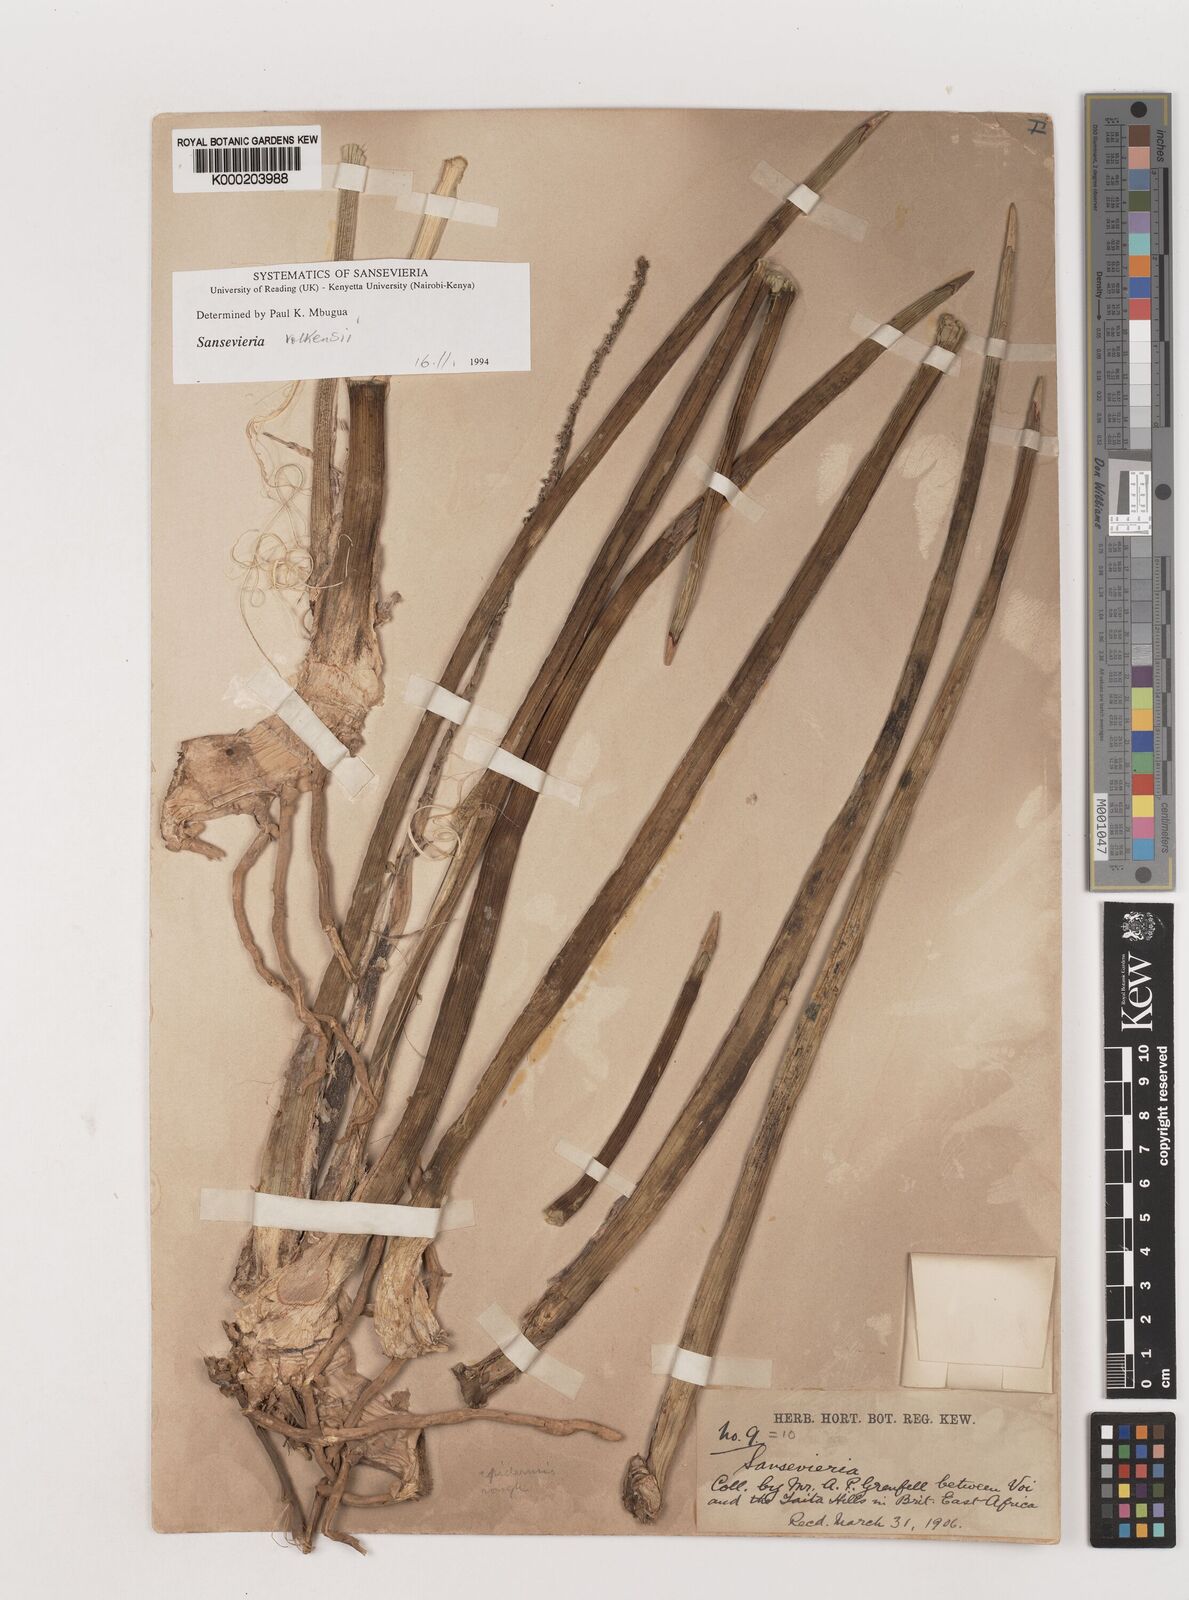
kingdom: Plantae
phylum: Tracheophyta
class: Liliopsida
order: Asparagales
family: Asparagaceae
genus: Dracaena
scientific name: Dracaena
